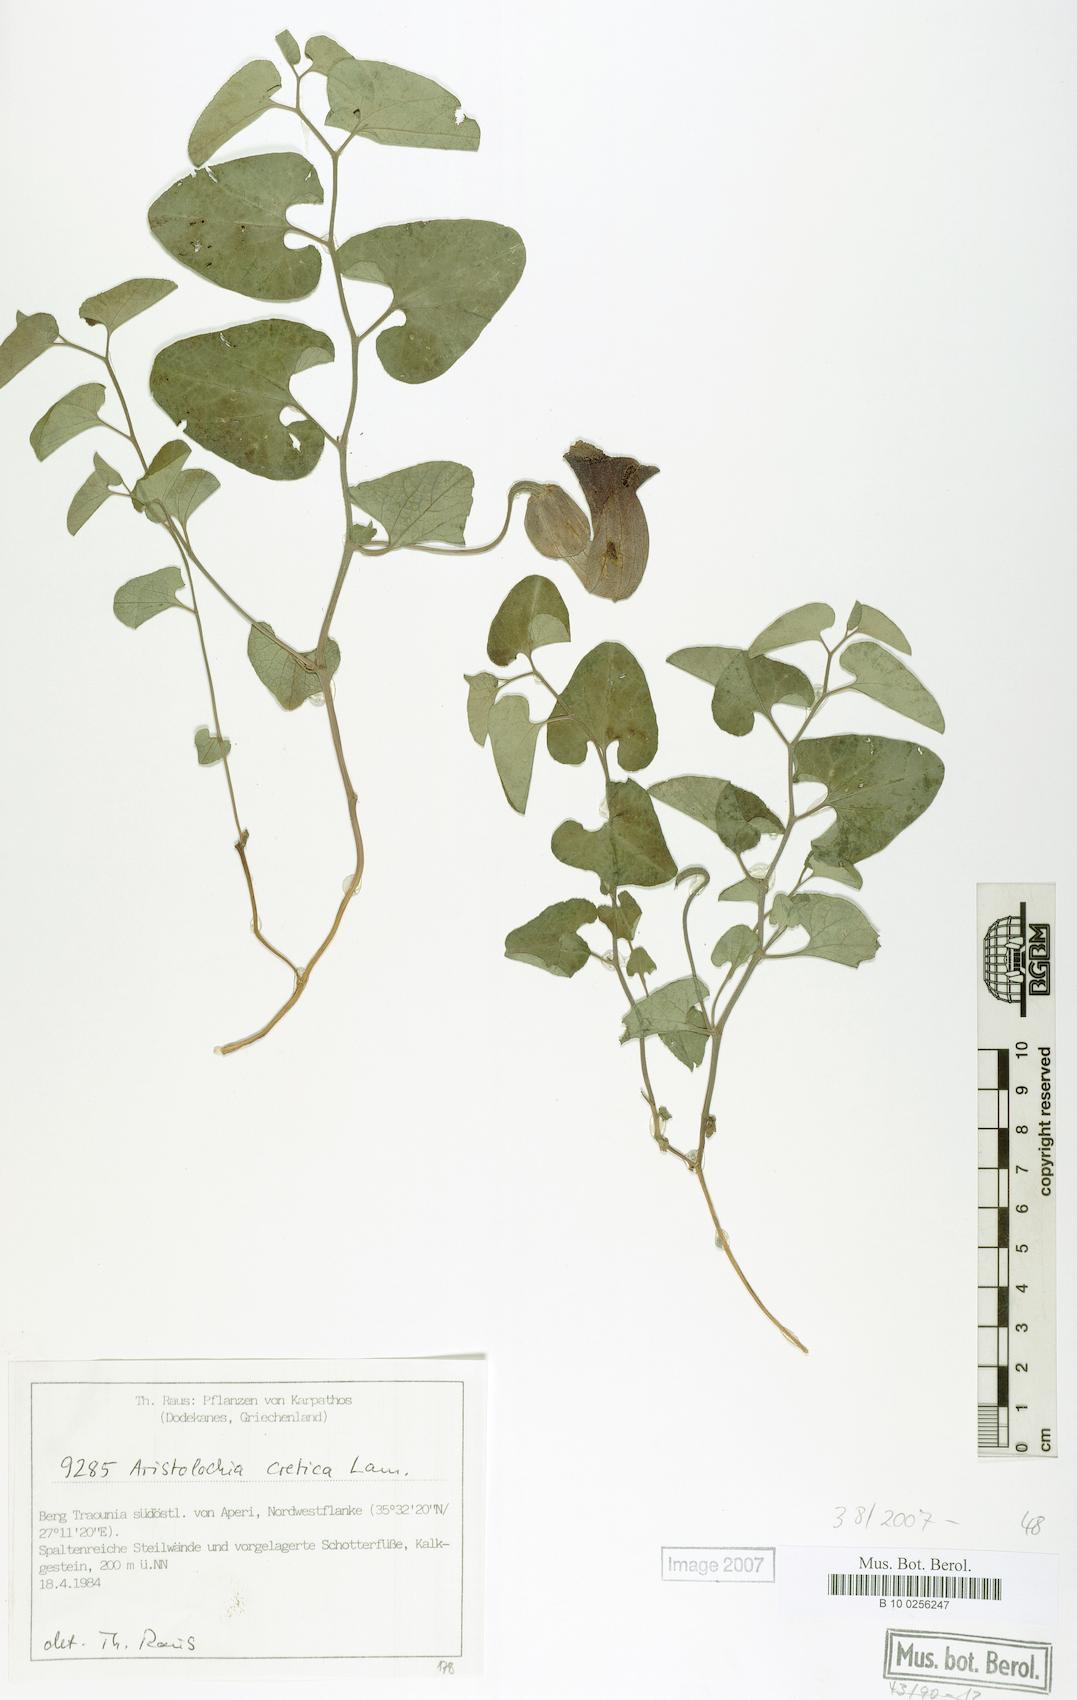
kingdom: Plantae
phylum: Tracheophyta
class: Magnoliopsida
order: Piperales
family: Aristolochiaceae
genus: Aristolochia
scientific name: Aristolochia cretica
